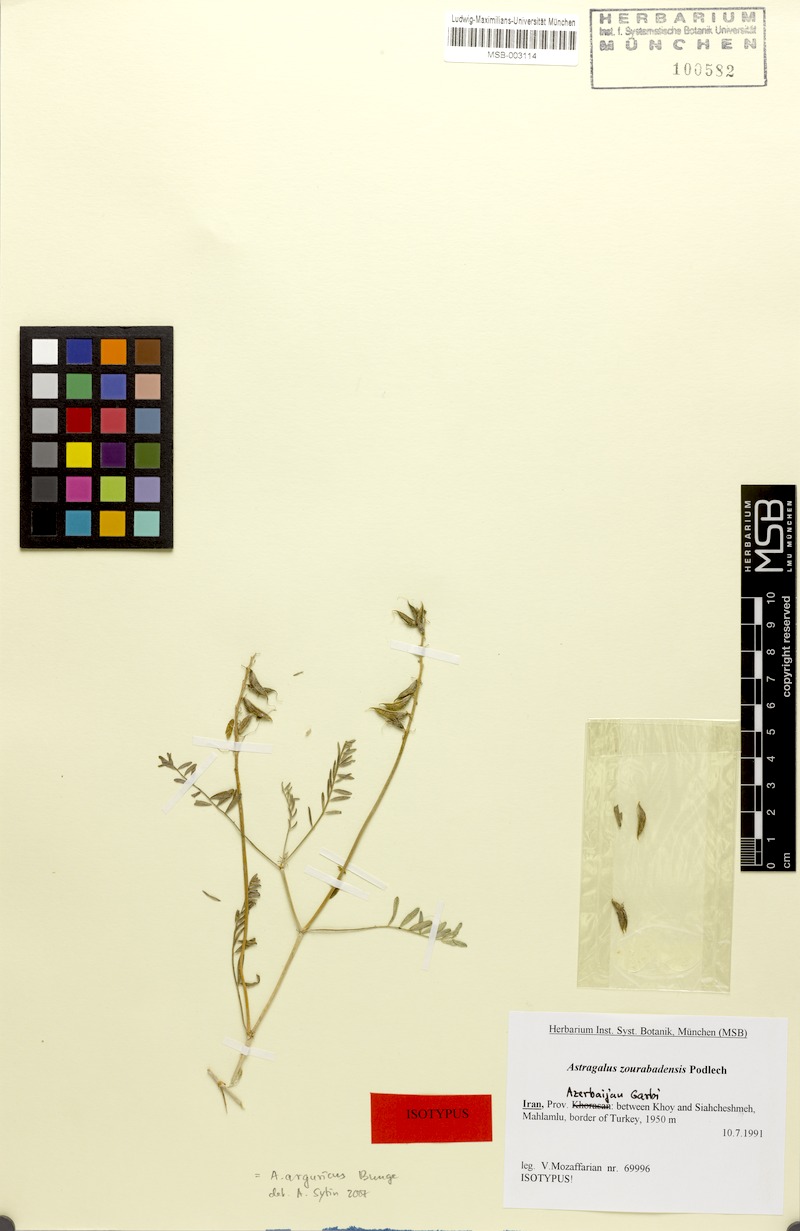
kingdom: Plantae
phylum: Tracheophyta
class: Magnoliopsida
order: Fabales
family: Fabaceae
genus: Astragalus
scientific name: Astragalus arguricus
